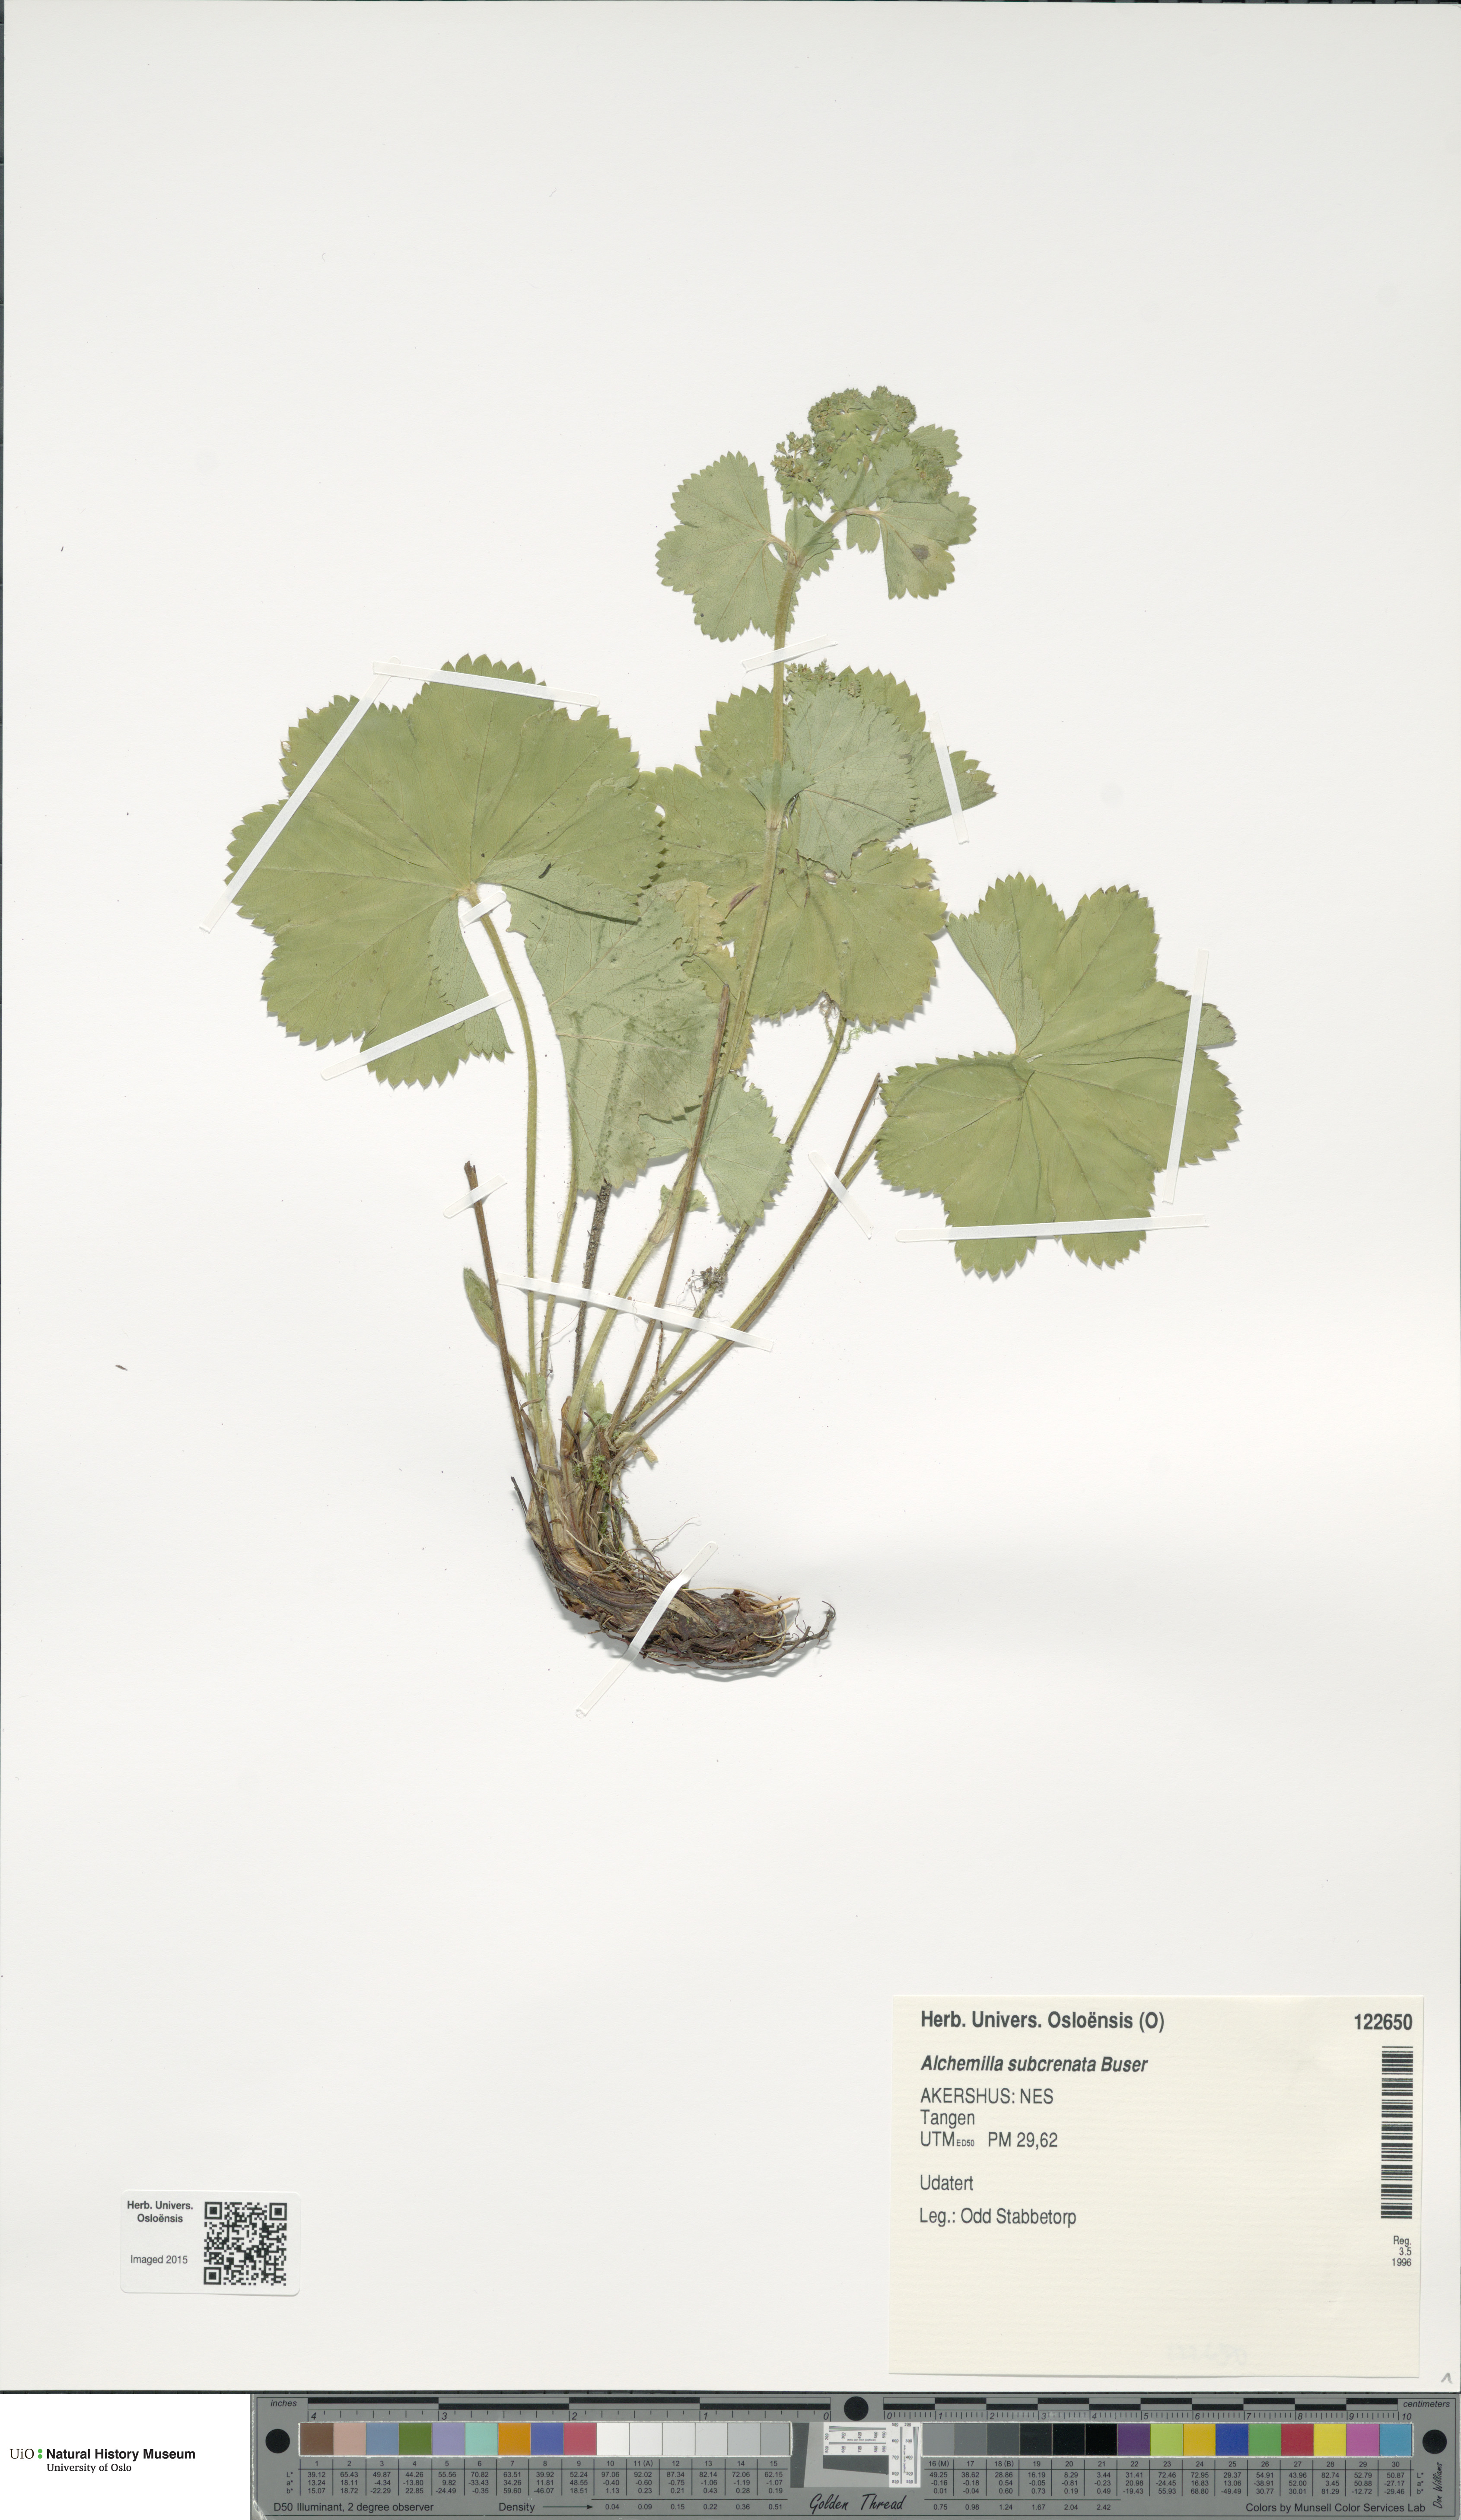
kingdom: Plantae
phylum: Tracheophyta
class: Magnoliopsida
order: Rosales
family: Rosaceae
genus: Alchemilla
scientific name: Alchemilla subcrenata
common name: Broadtooth lady's mantle
